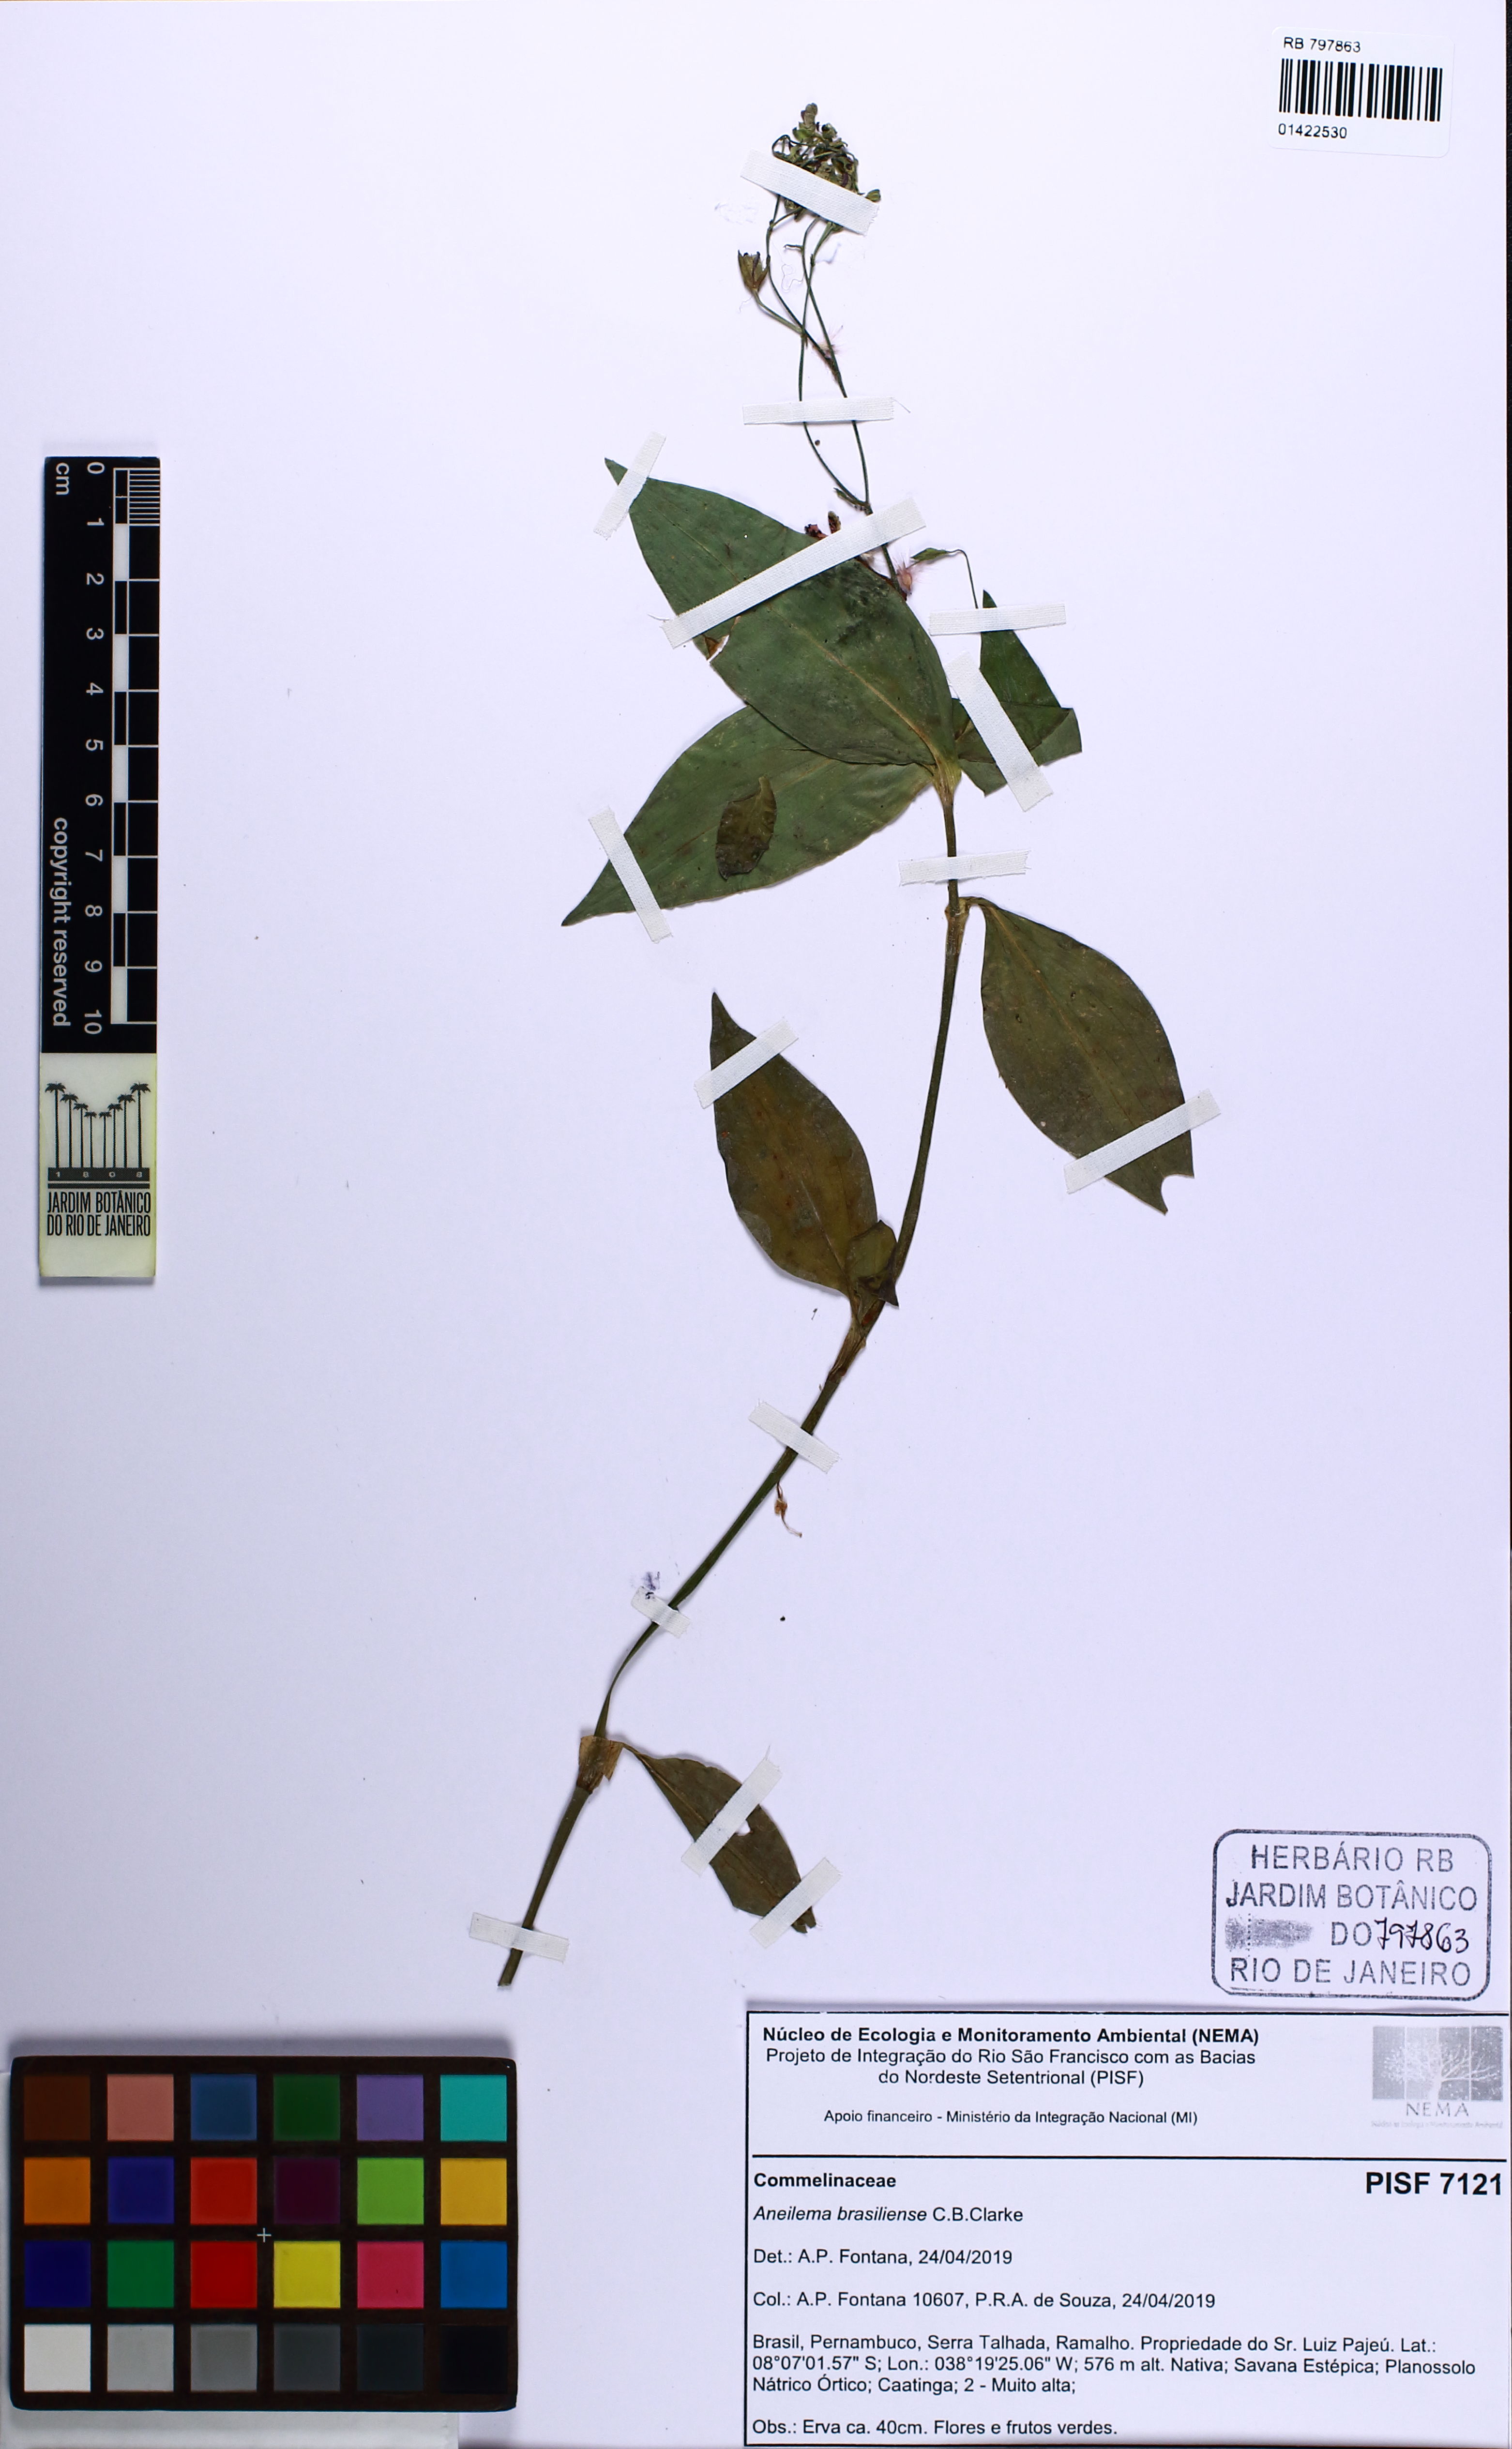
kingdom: Plantae
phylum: Tracheophyta
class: Liliopsida
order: Commelinales
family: Commelinaceae
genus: Aneilema
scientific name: Aneilema brasiliense
